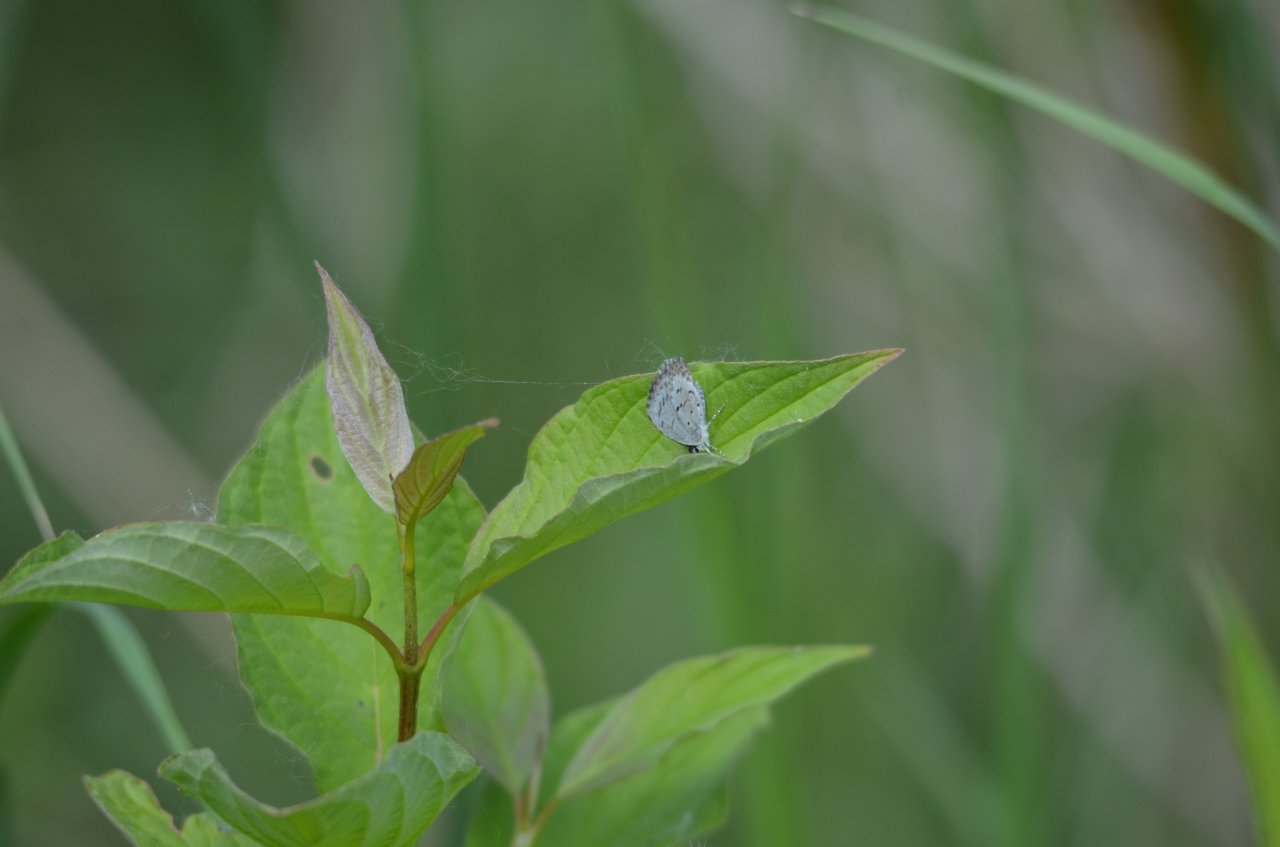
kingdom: Animalia
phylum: Arthropoda
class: Insecta
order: Lepidoptera
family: Lycaenidae
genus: Celastrina
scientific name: Celastrina
